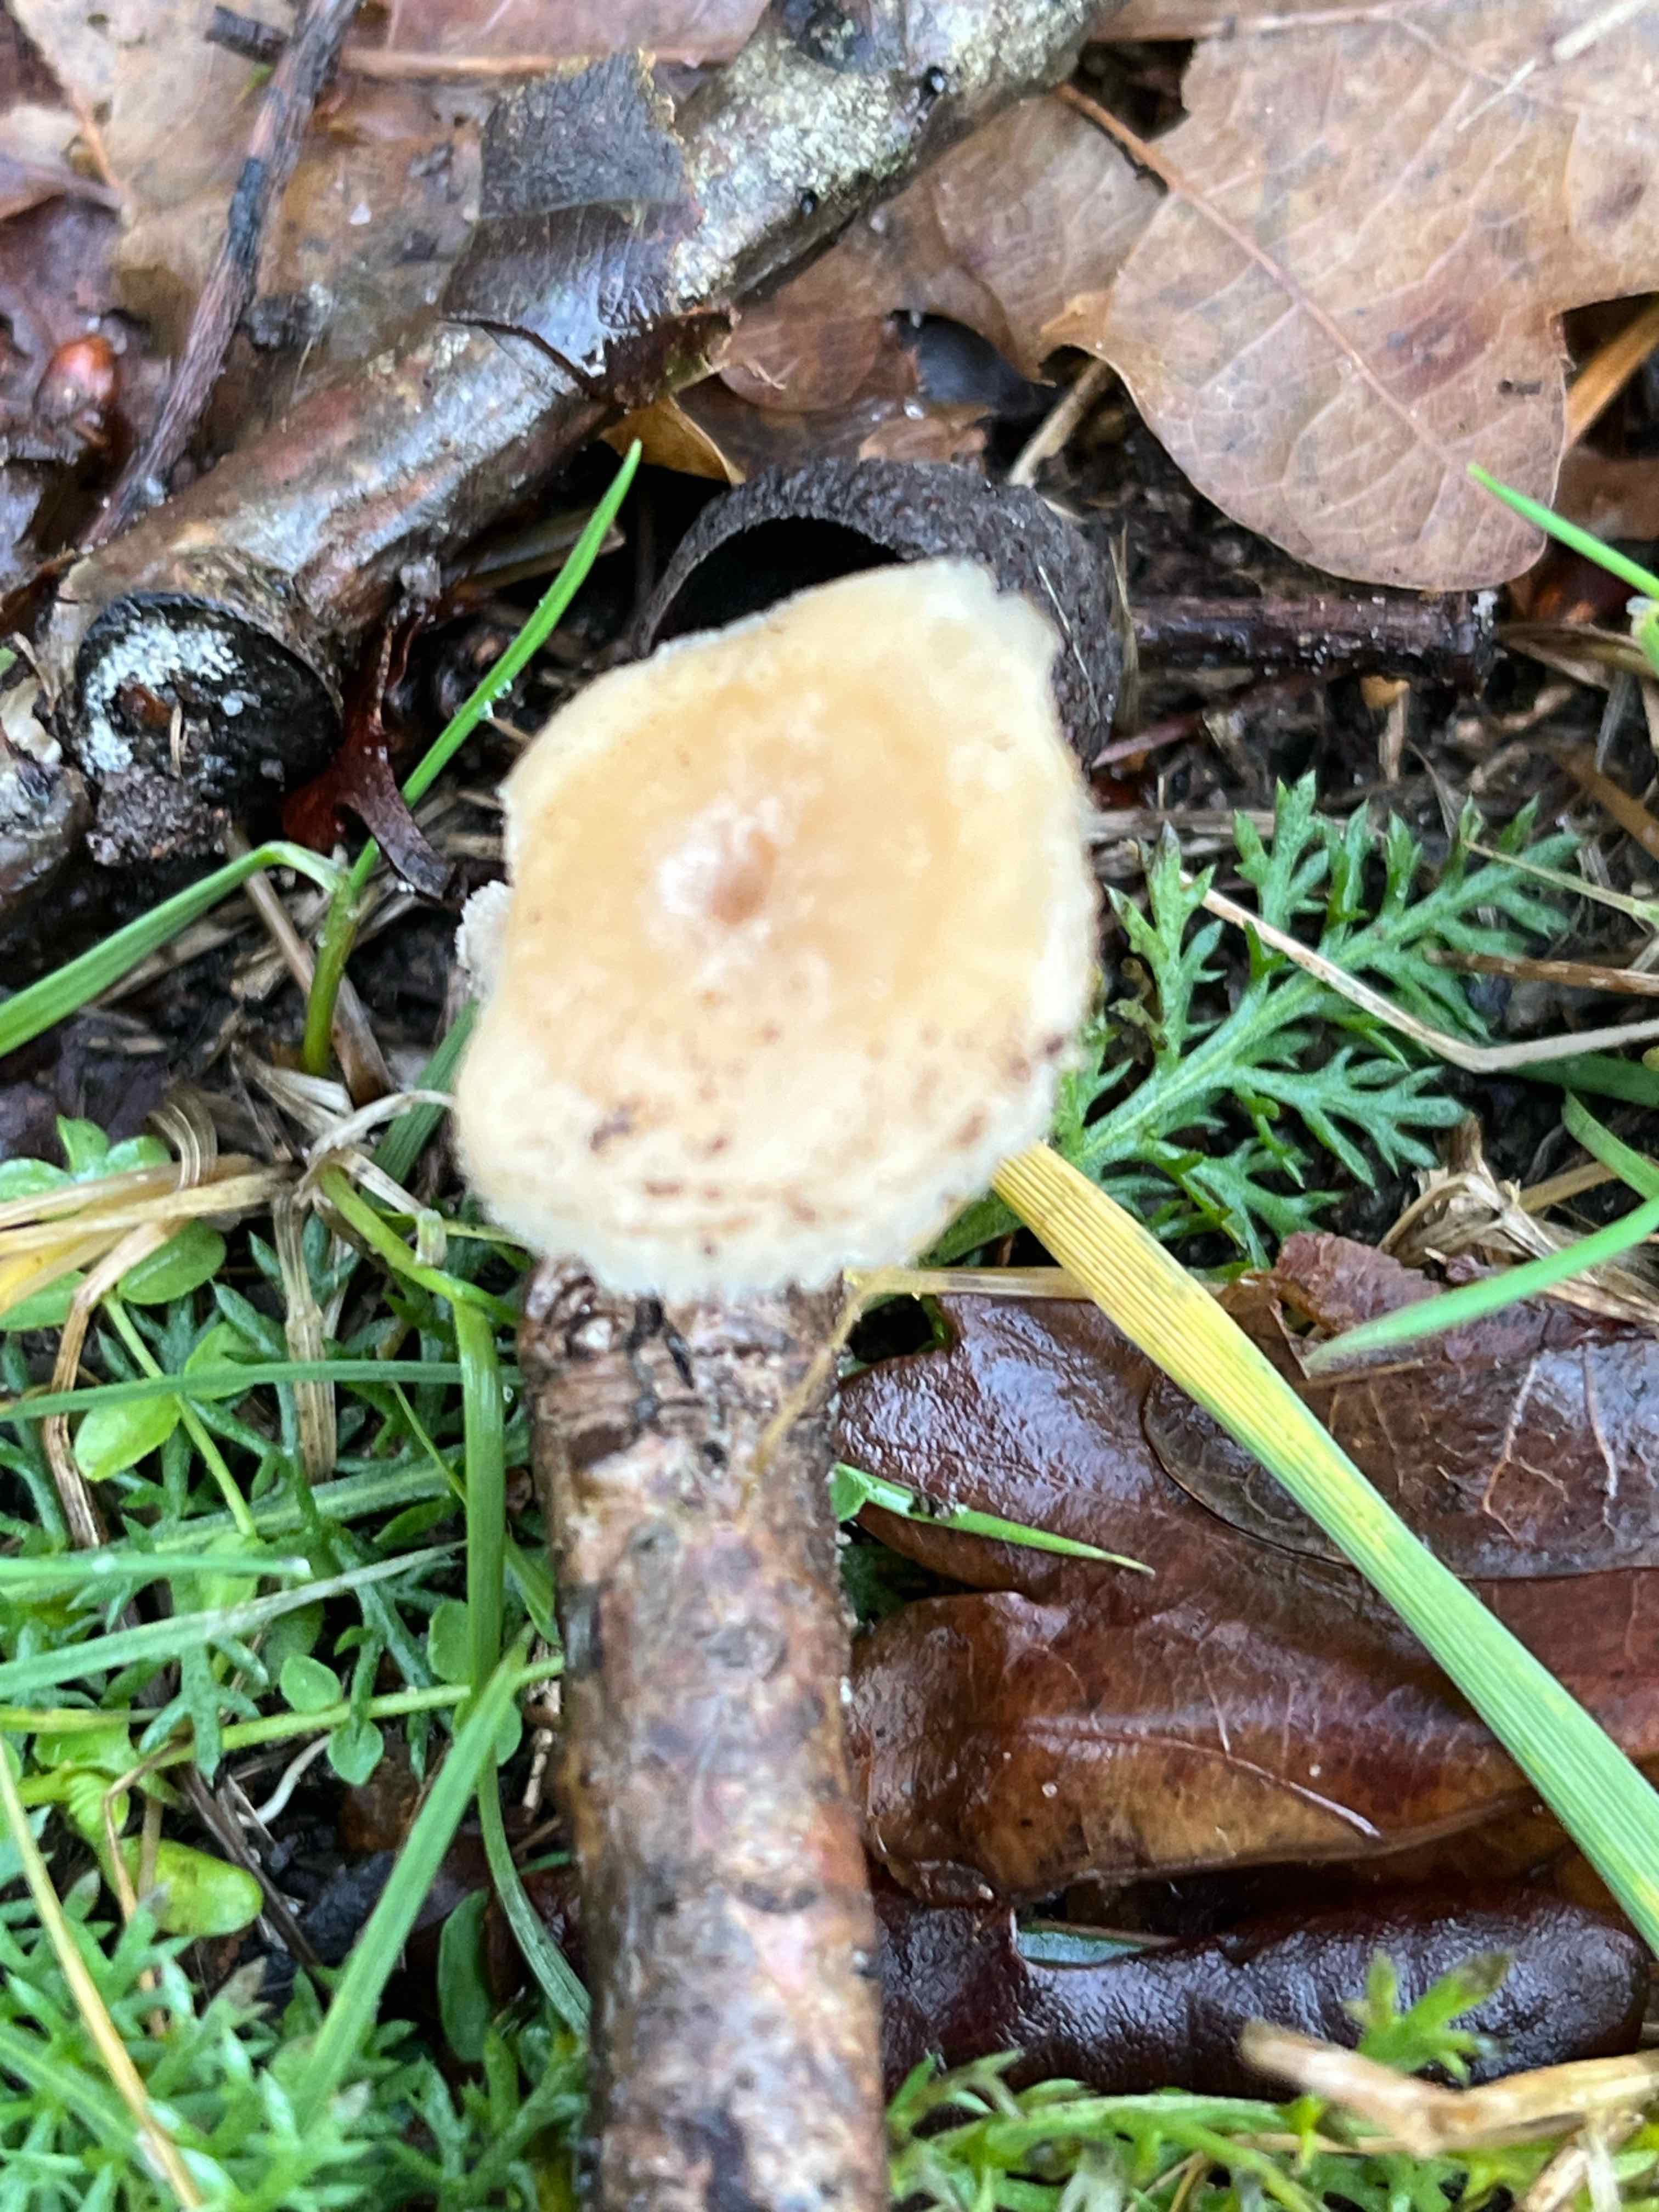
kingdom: Fungi
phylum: Basidiomycota
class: Agaricomycetes
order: Polyporales
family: Polyporaceae
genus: Lentinus
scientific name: Lentinus brumalis
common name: vinter-stilkporesvamp
